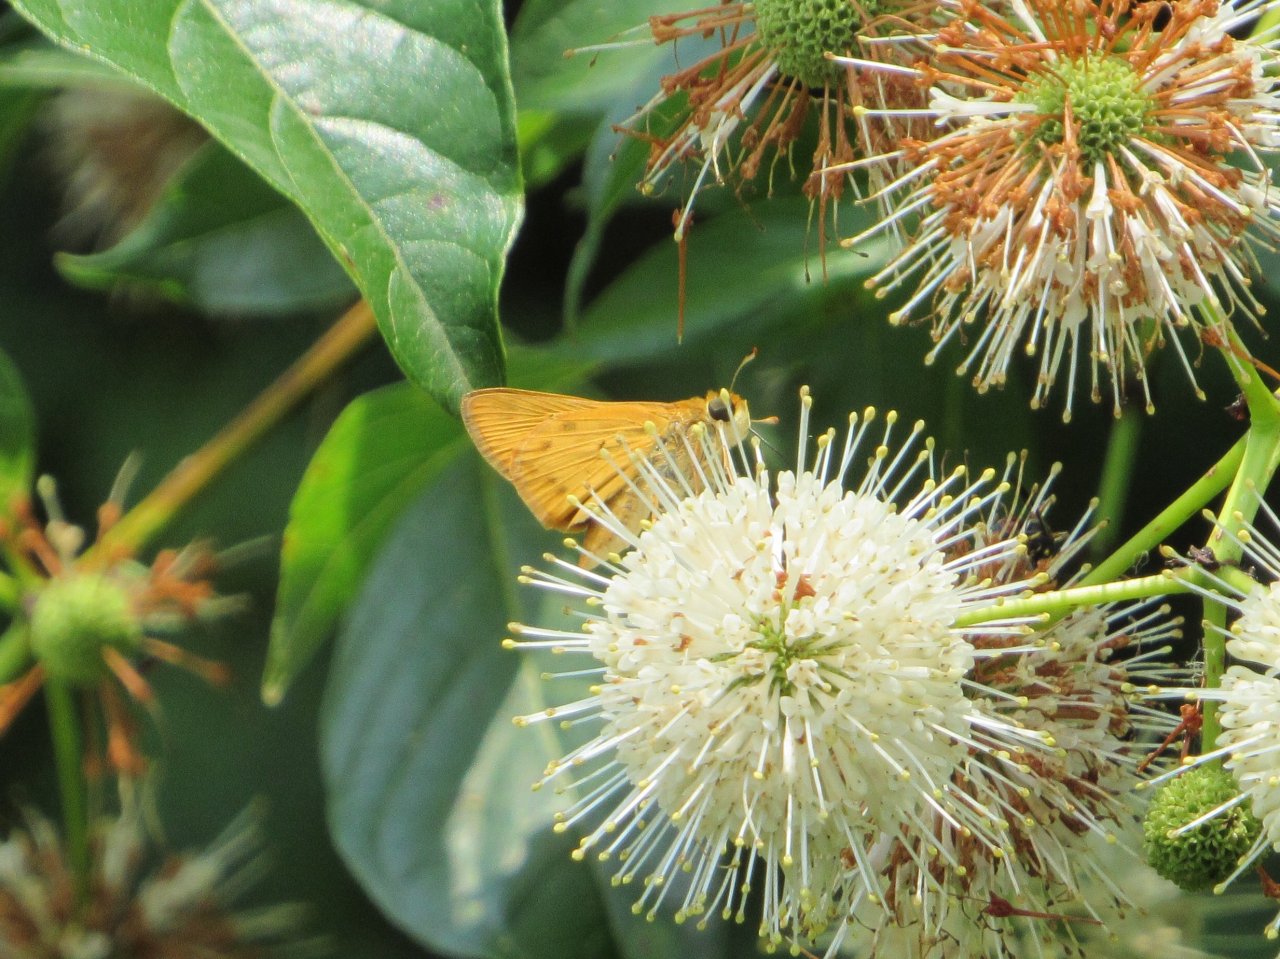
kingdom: Animalia
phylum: Arthropoda
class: Insecta
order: Lepidoptera
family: Hesperiidae
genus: Hylephila
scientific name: Hylephila phyleus
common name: Fiery Skipper
